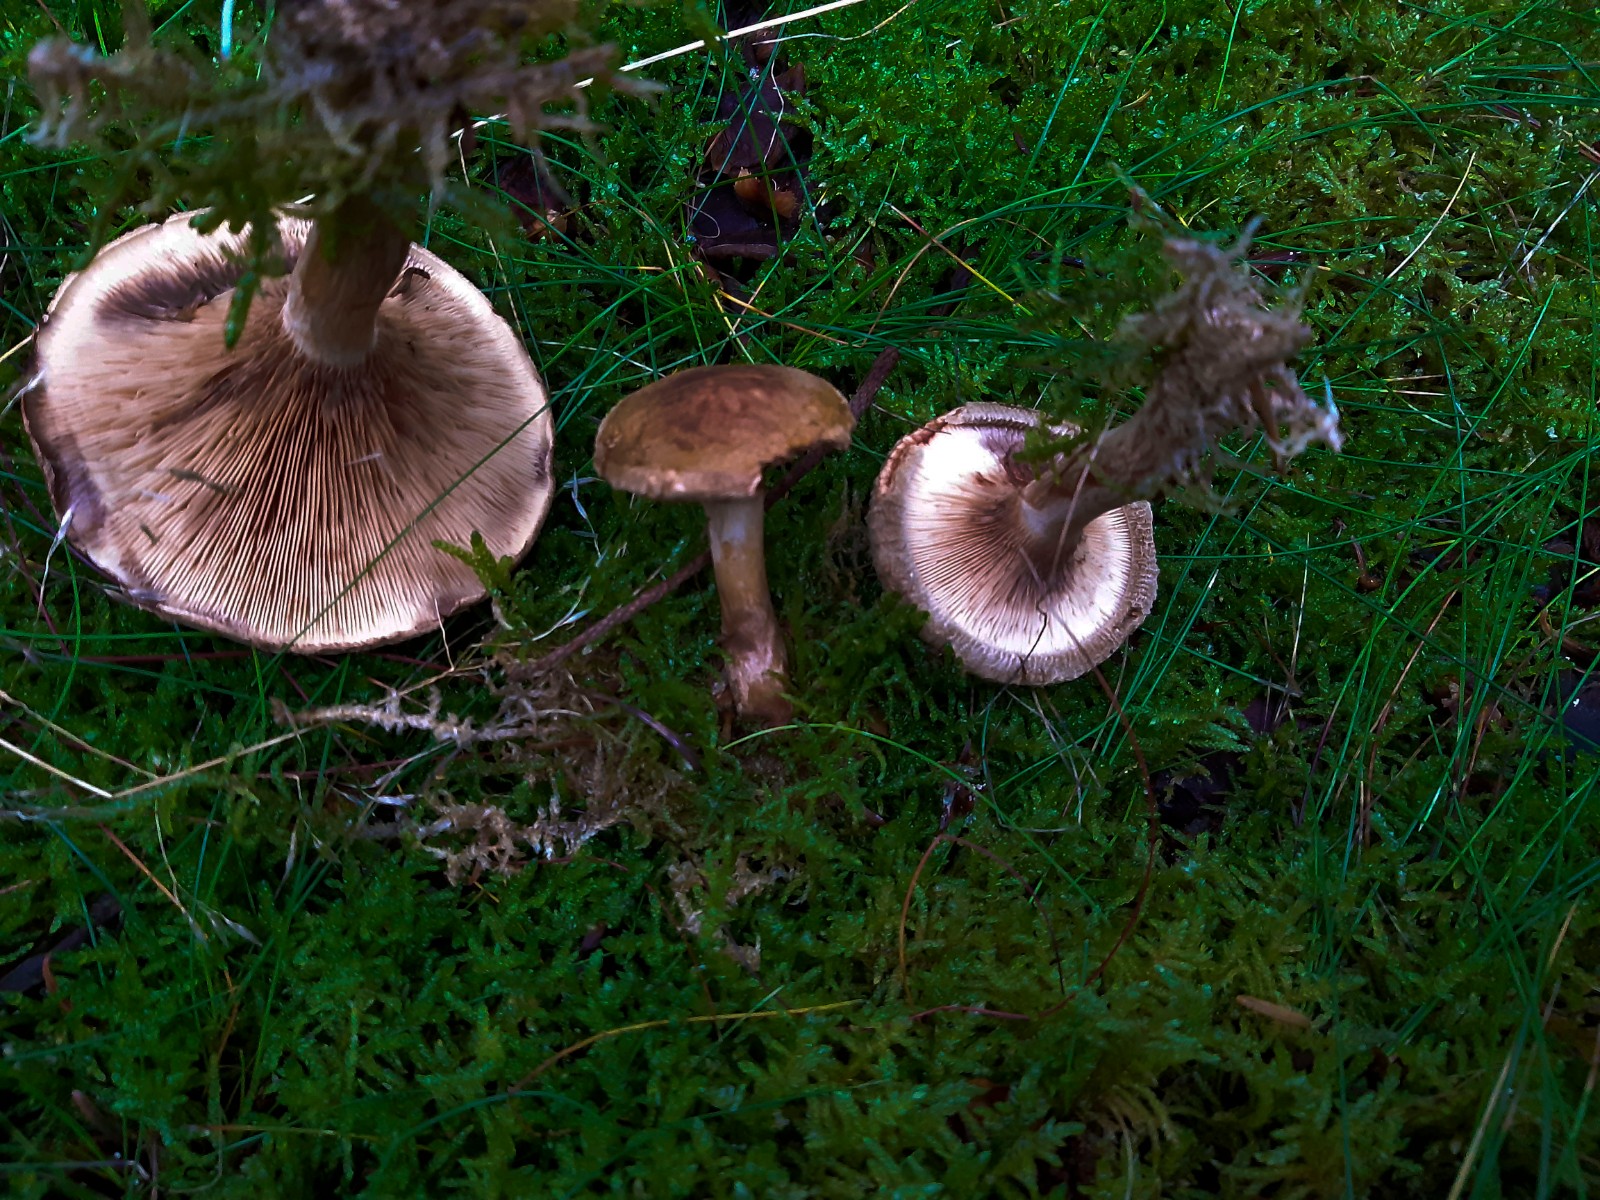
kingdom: Fungi
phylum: Basidiomycota
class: Agaricomycetes
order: Boletales
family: Paxillaceae
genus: Paxillus
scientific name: Paxillus involutus
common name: almindelig netbladhat
